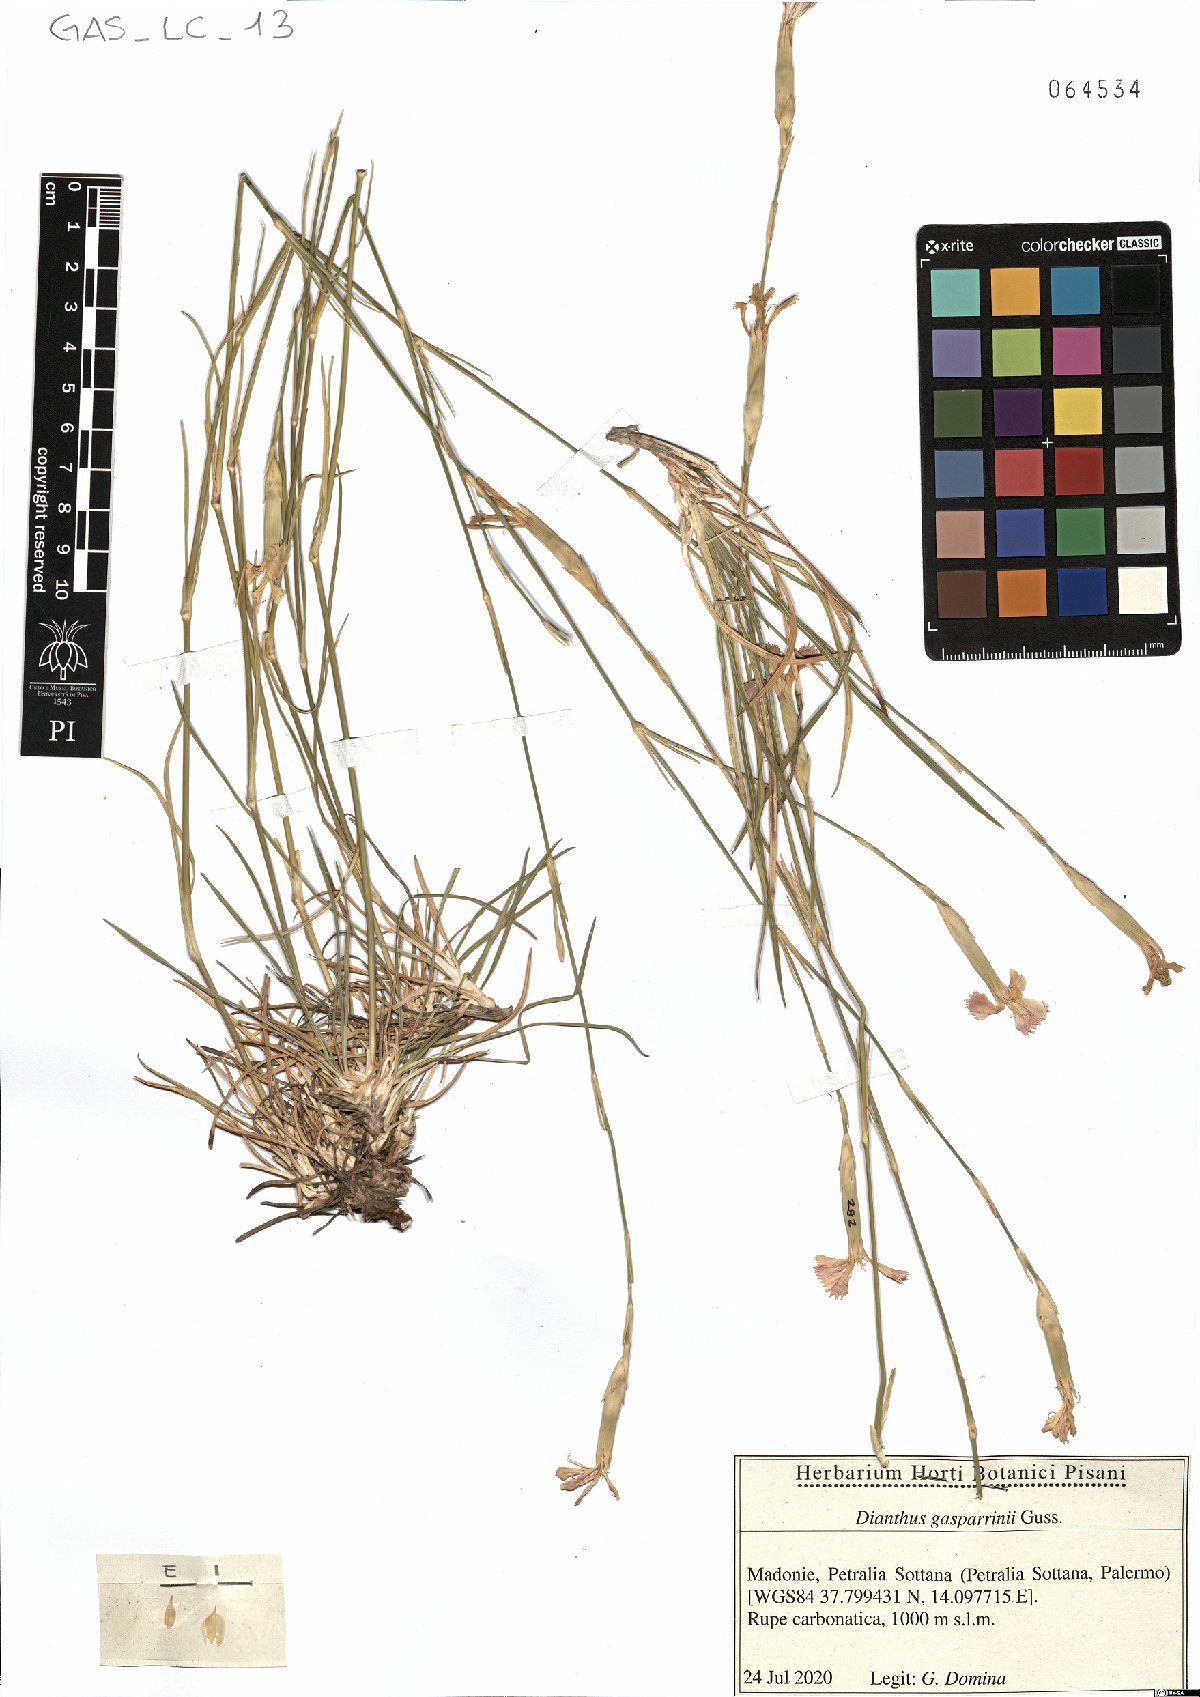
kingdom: Plantae
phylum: Tracheophyta
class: Magnoliopsida
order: Caryophyllales
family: Caryophyllaceae
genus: Dianthus
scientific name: Dianthus gasparrinii
